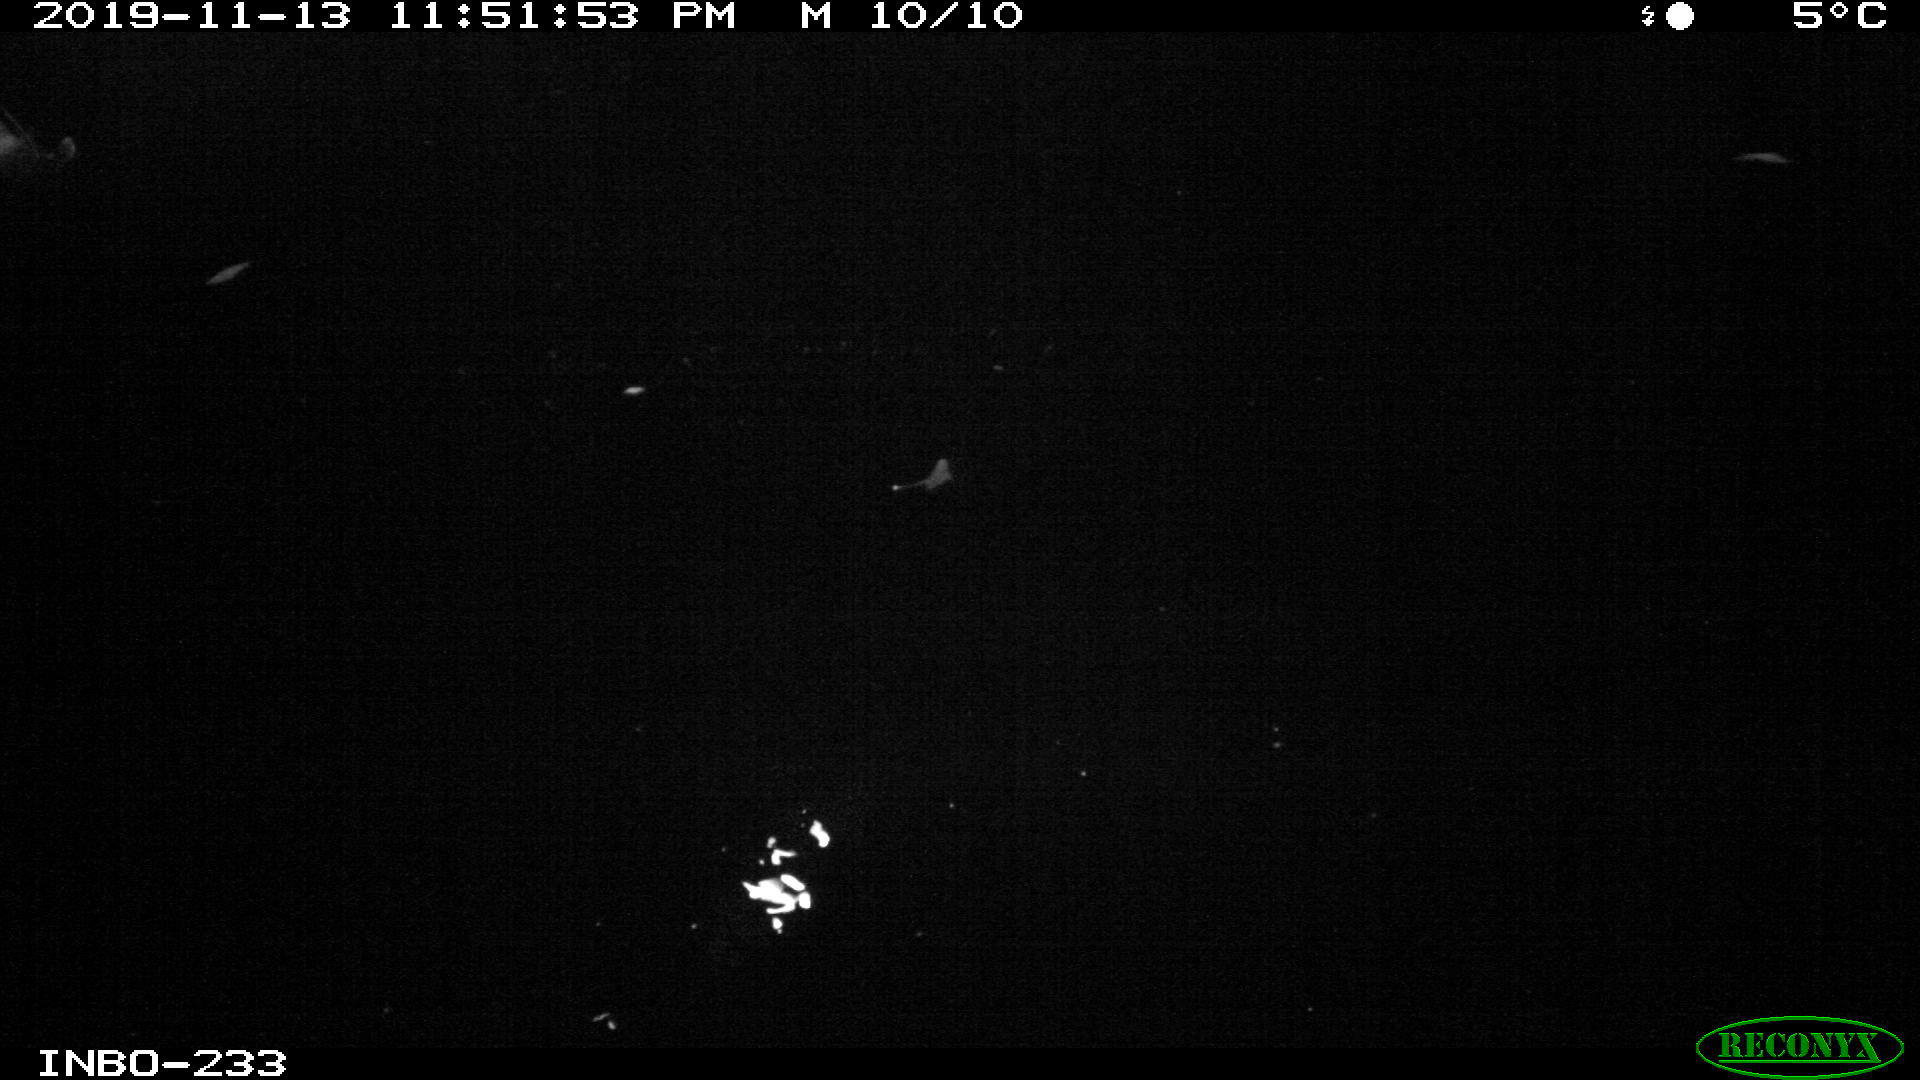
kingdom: Animalia
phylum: Chordata
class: Aves
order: Anseriformes
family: Anatidae
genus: Anas
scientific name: Anas platyrhynchos
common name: Mallard
